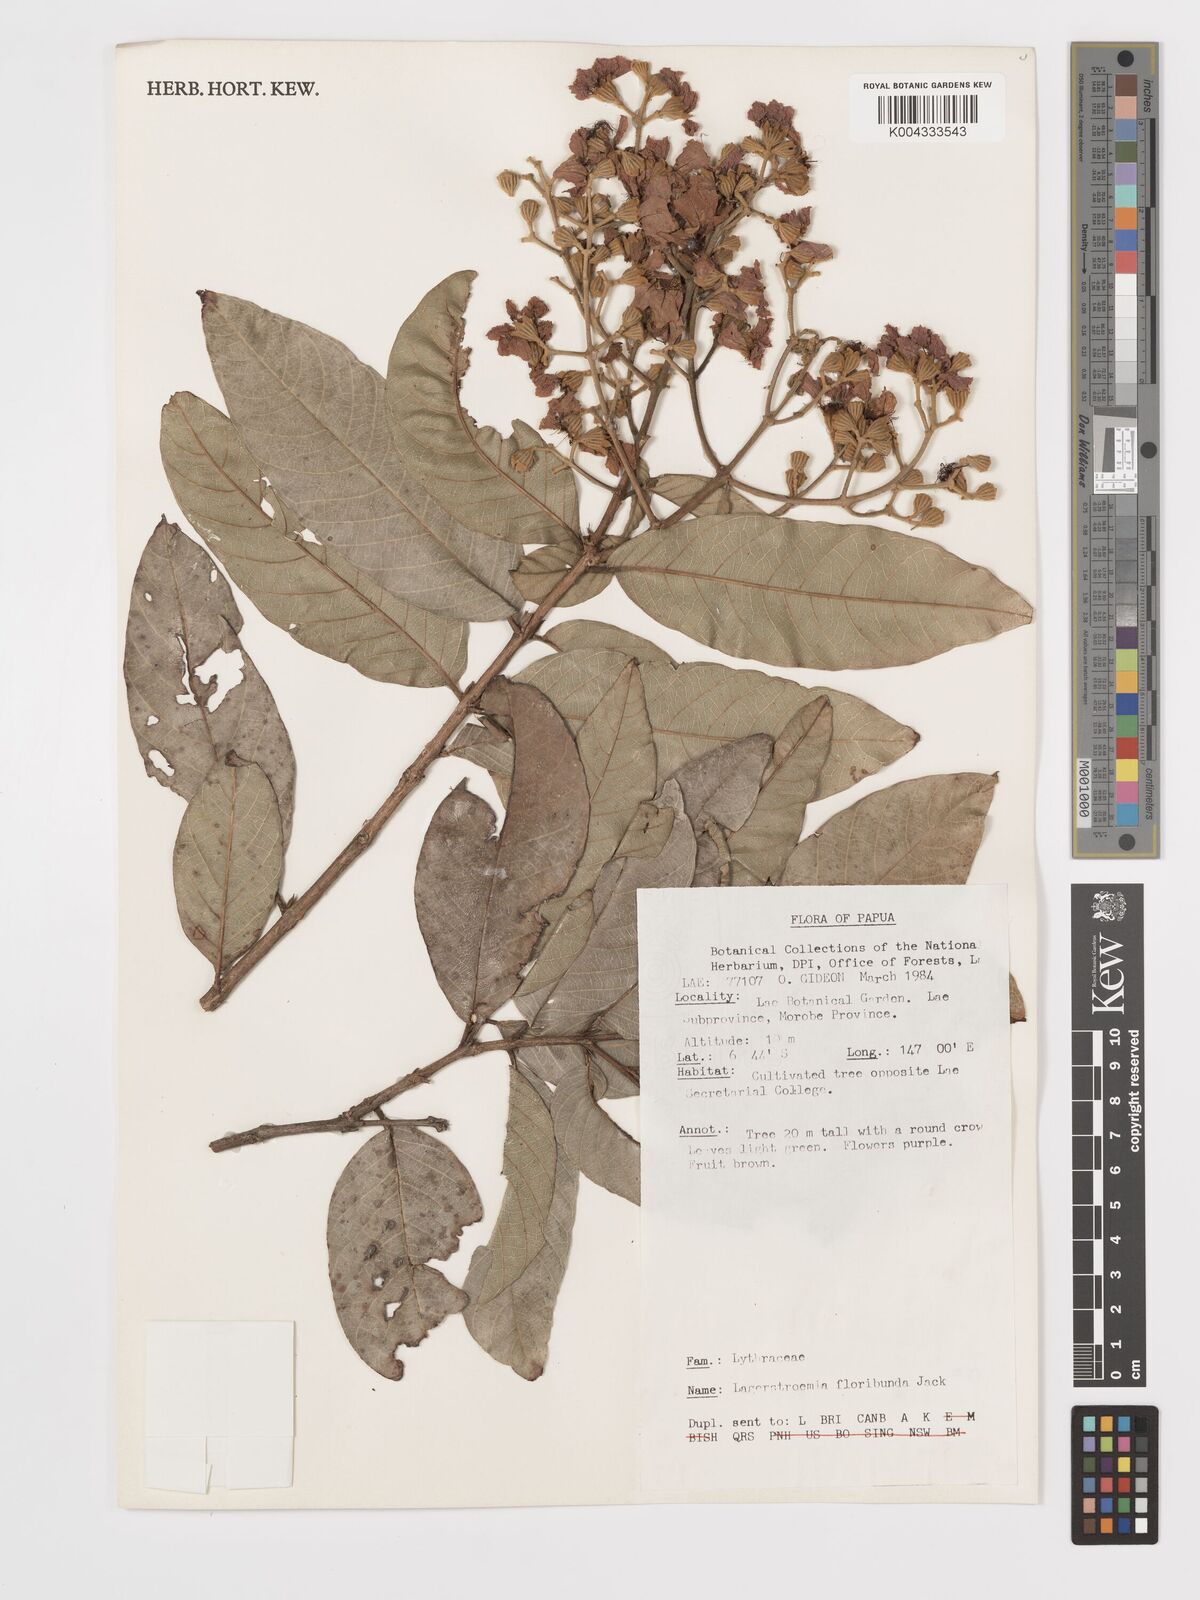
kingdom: Plantae
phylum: Tracheophyta
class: Magnoliopsida
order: Myrtales
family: Lythraceae
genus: Lagerstroemia
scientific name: Lagerstroemia floribunda
